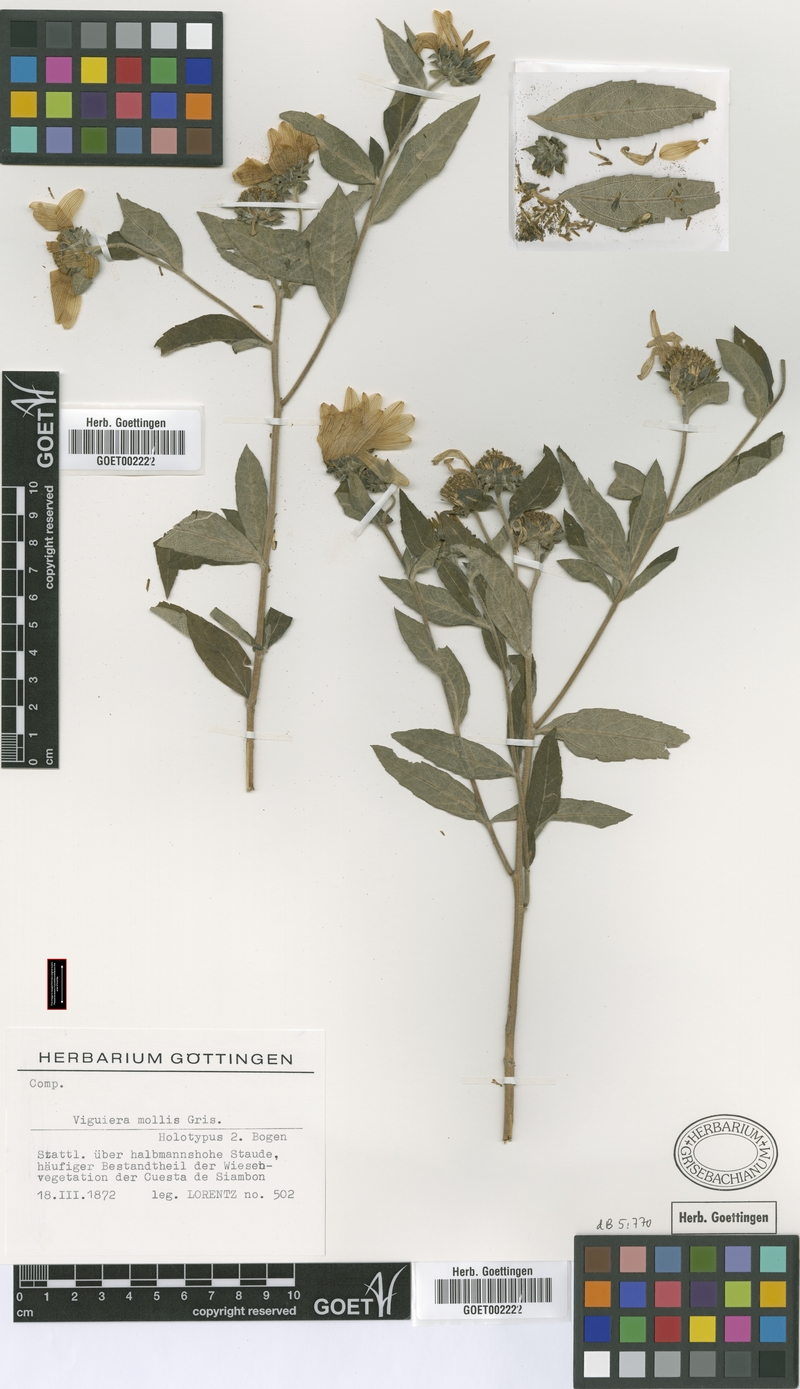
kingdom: Plantae
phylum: Tracheophyta
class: Magnoliopsida
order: Asterales
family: Asteraceae
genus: Aldama
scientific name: Aldama mollis
